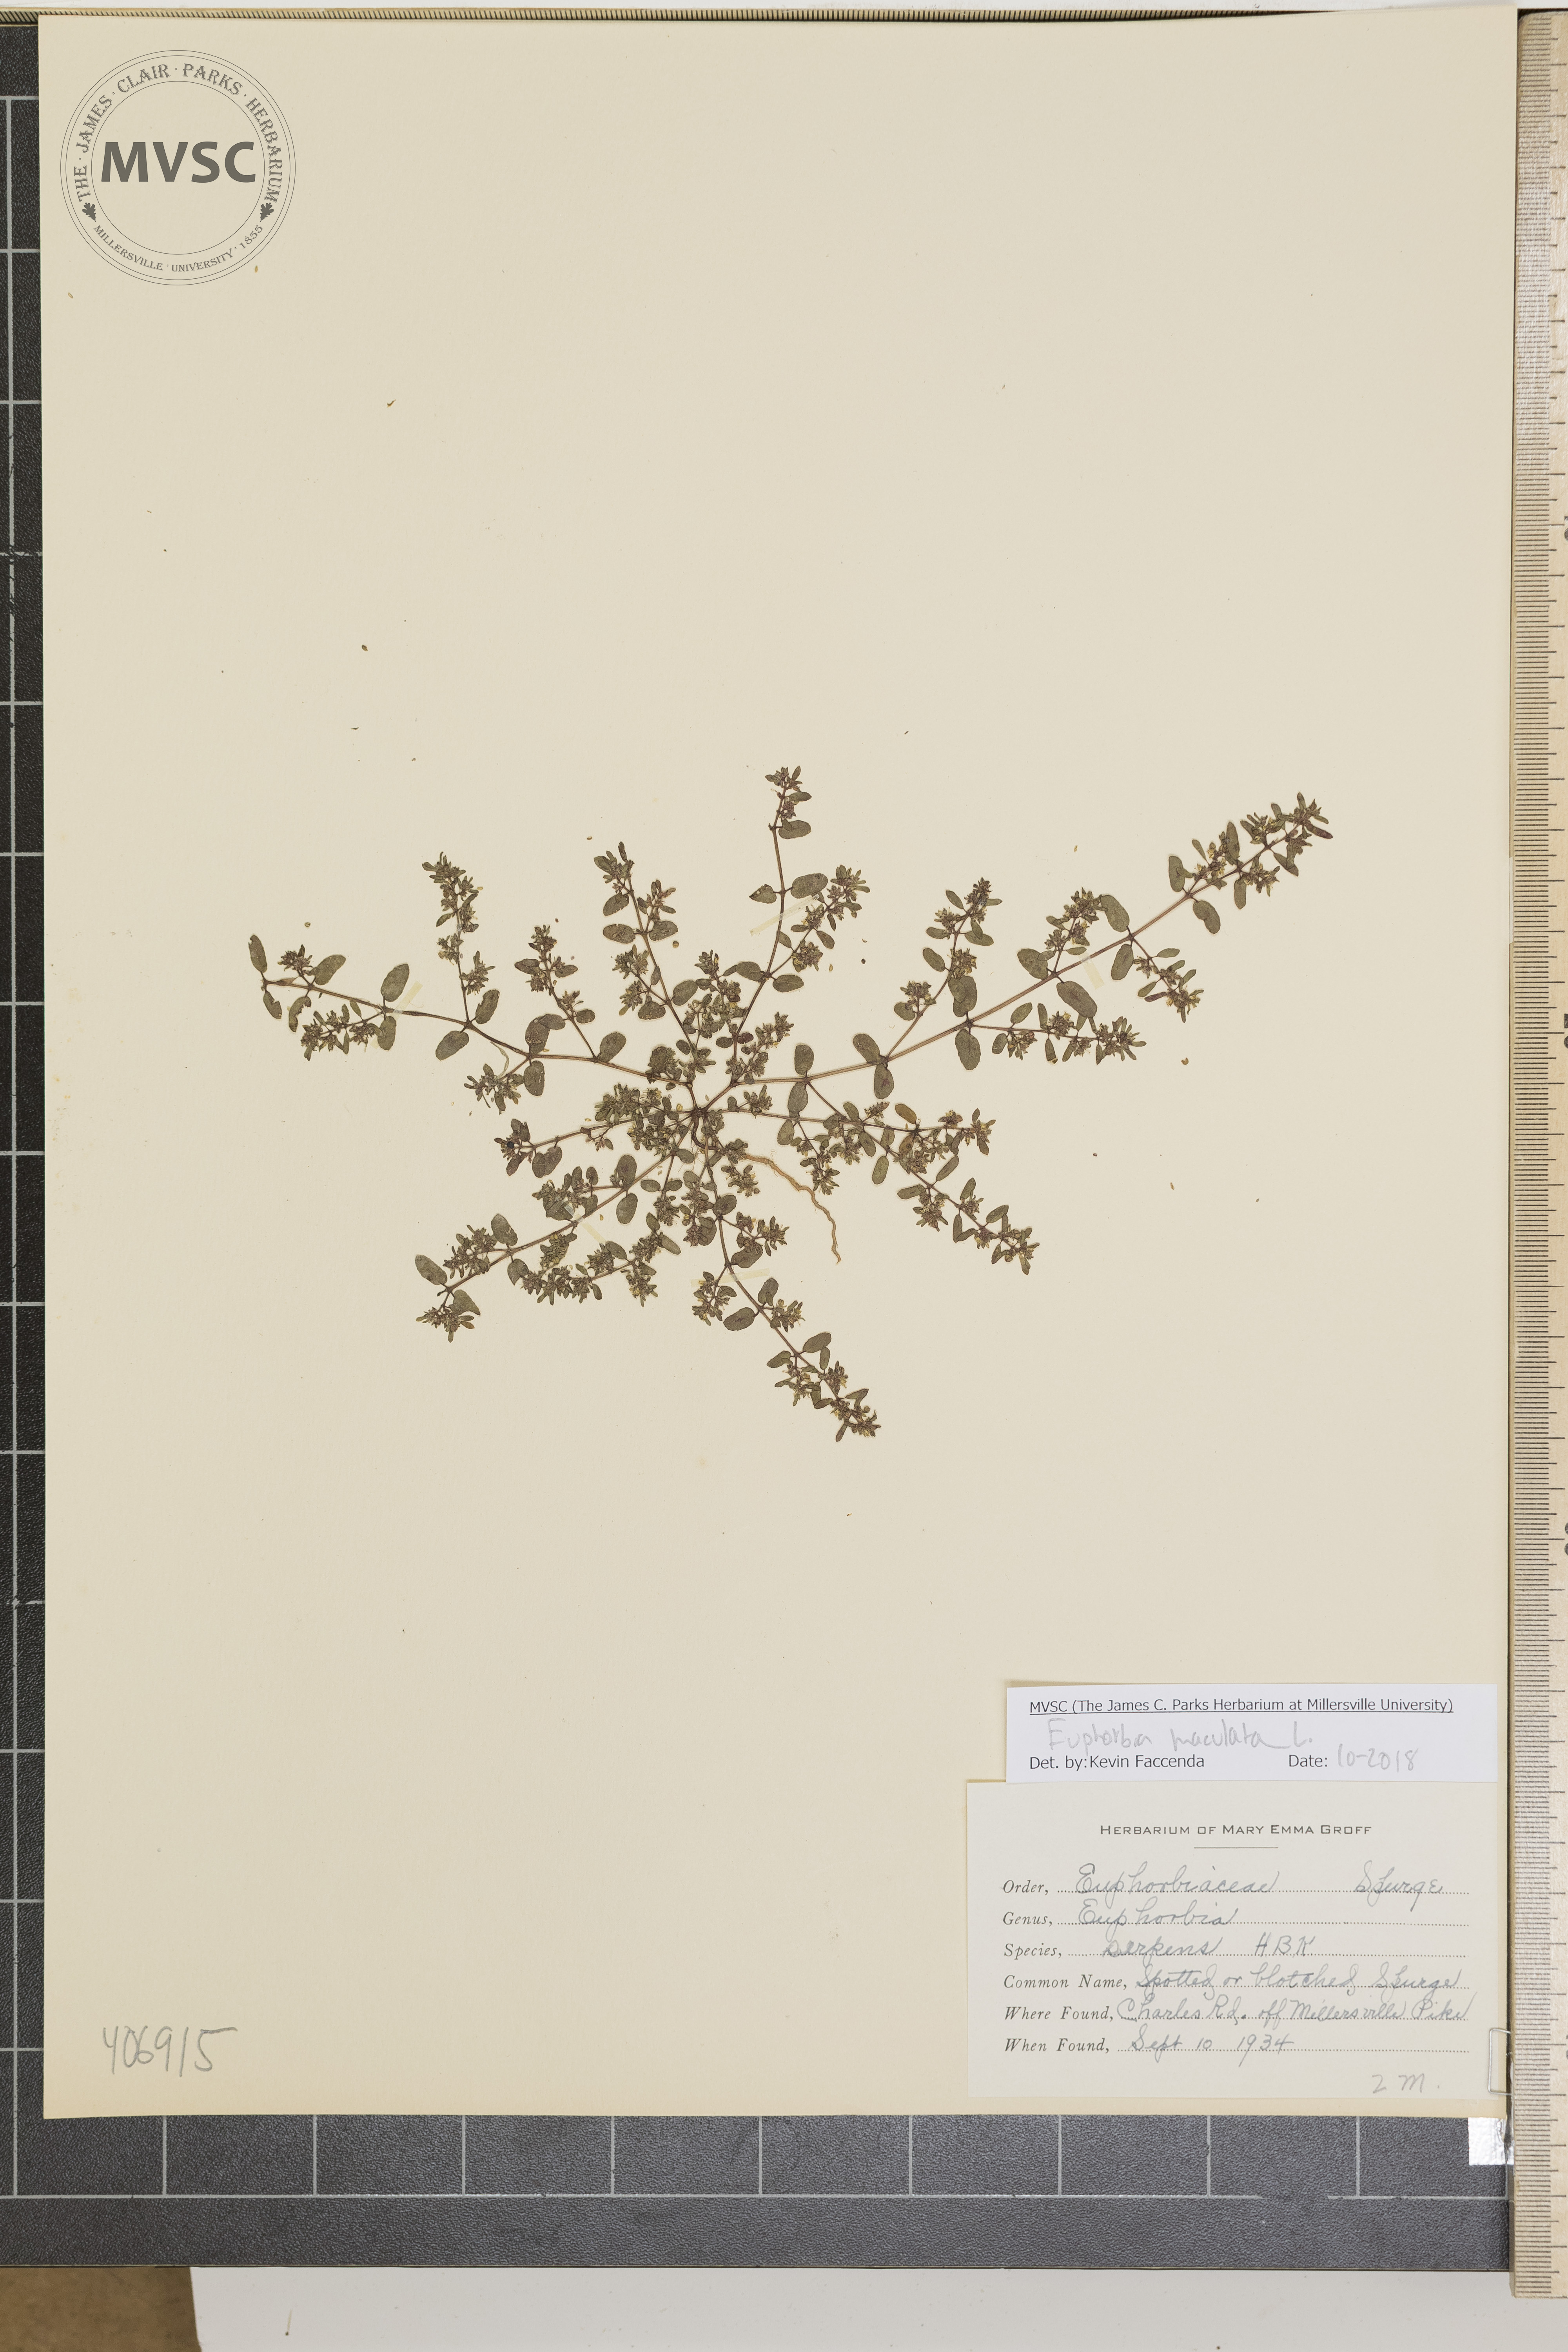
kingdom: Plantae
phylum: Tracheophyta
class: Magnoliopsida
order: Malpighiales
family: Euphorbiaceae
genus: Euphorbia
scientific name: Euphorbia maculata
